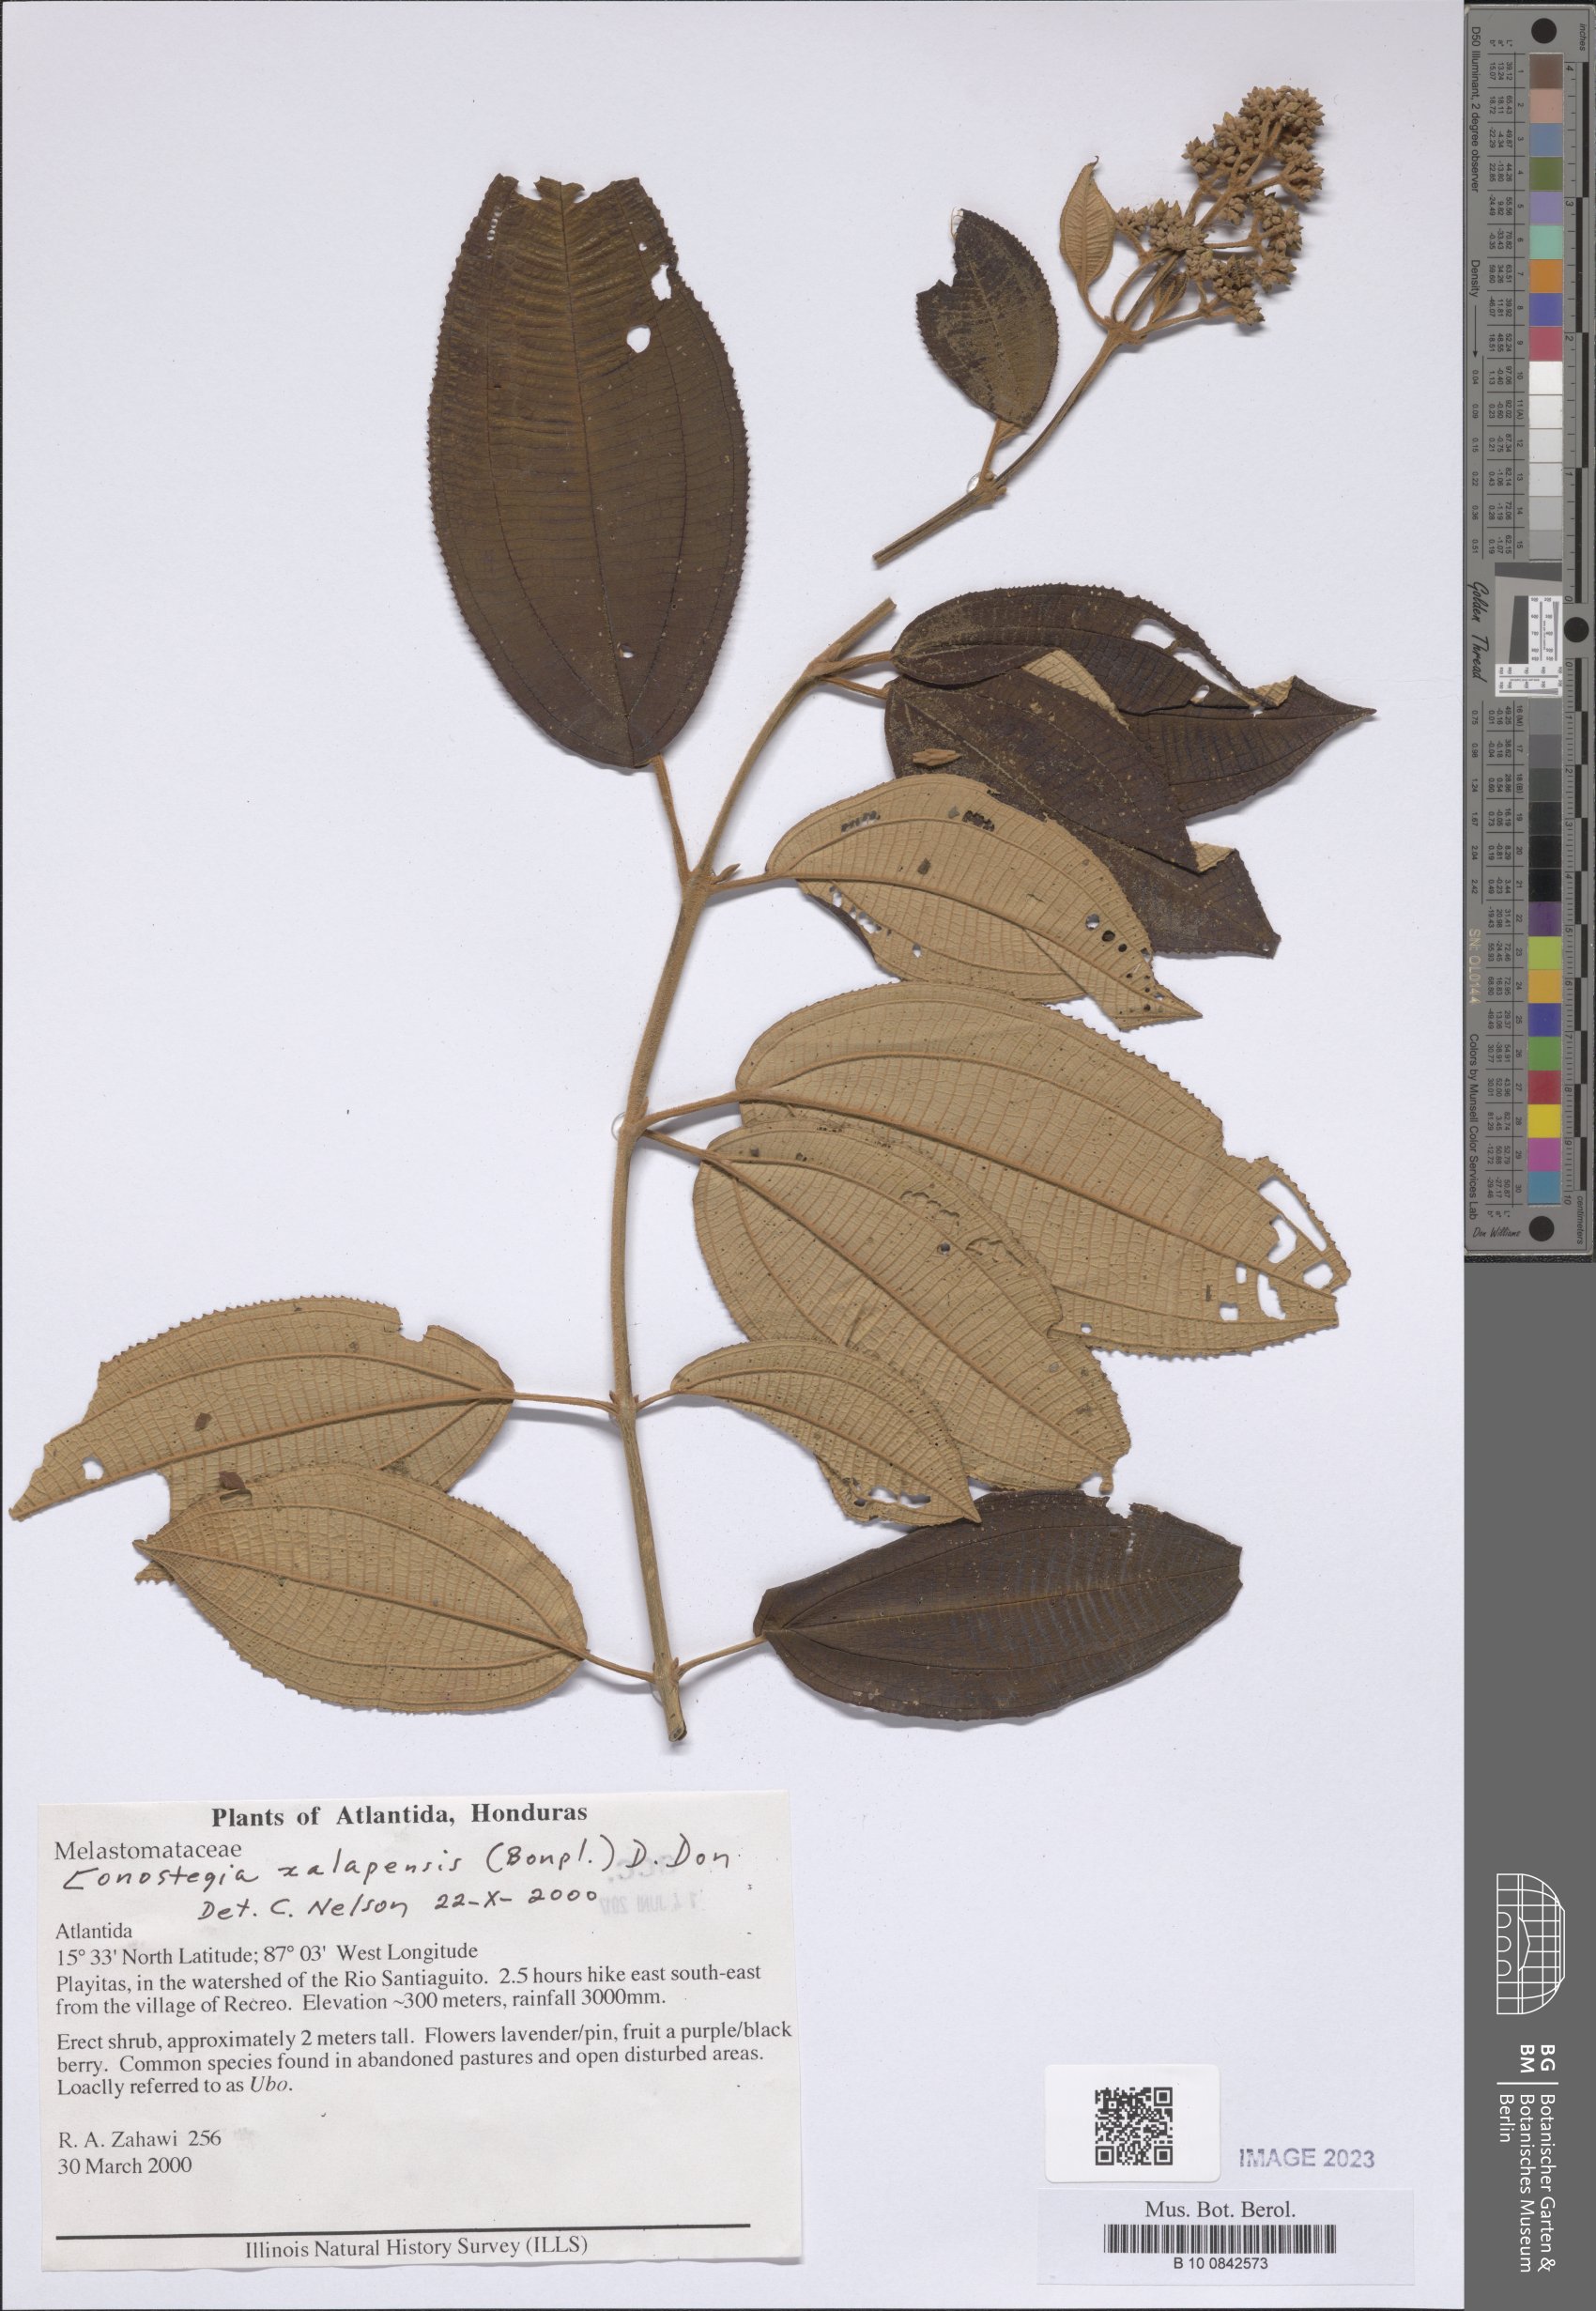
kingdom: Plantae
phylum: Tracheophyta
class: Magnoliopsida
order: Myrtales
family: Melastomataceae
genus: Miconia
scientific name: Miconia xalapensis
